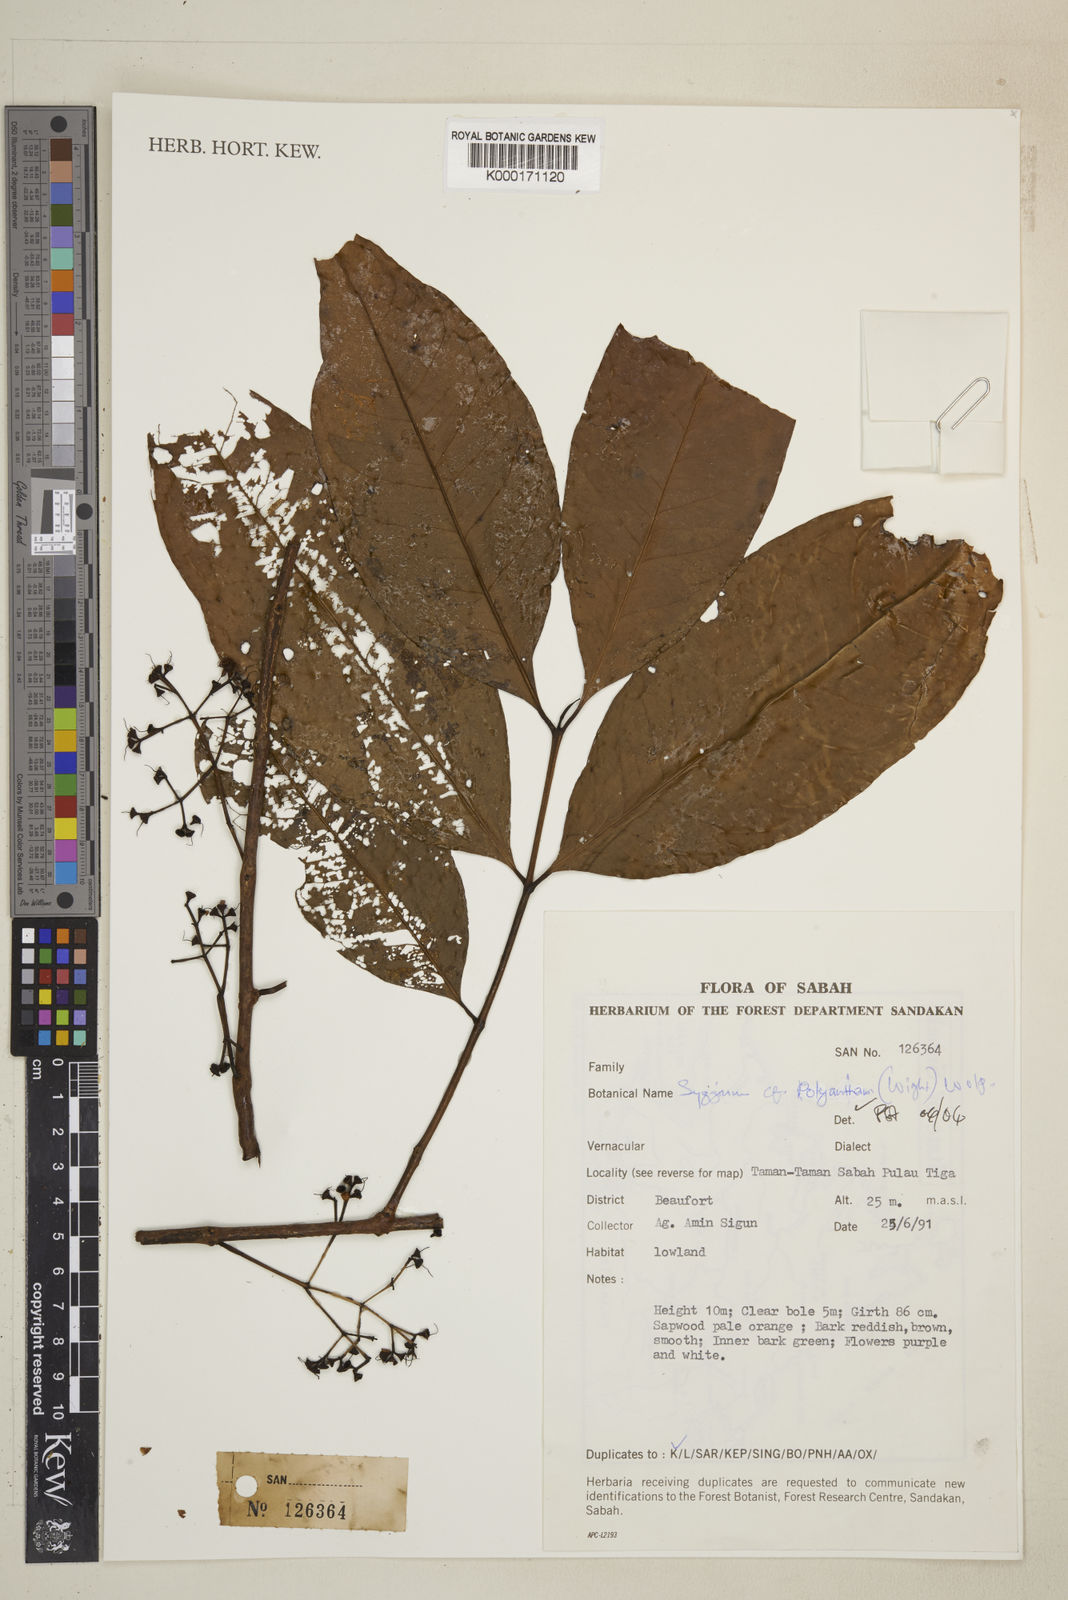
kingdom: Plantae
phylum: Tracheophyta
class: Magnoliopsida
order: Myrtales
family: Myrtaceae
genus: Syzygium
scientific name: Syzygium polyanthum
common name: Indonesian bayleaf
